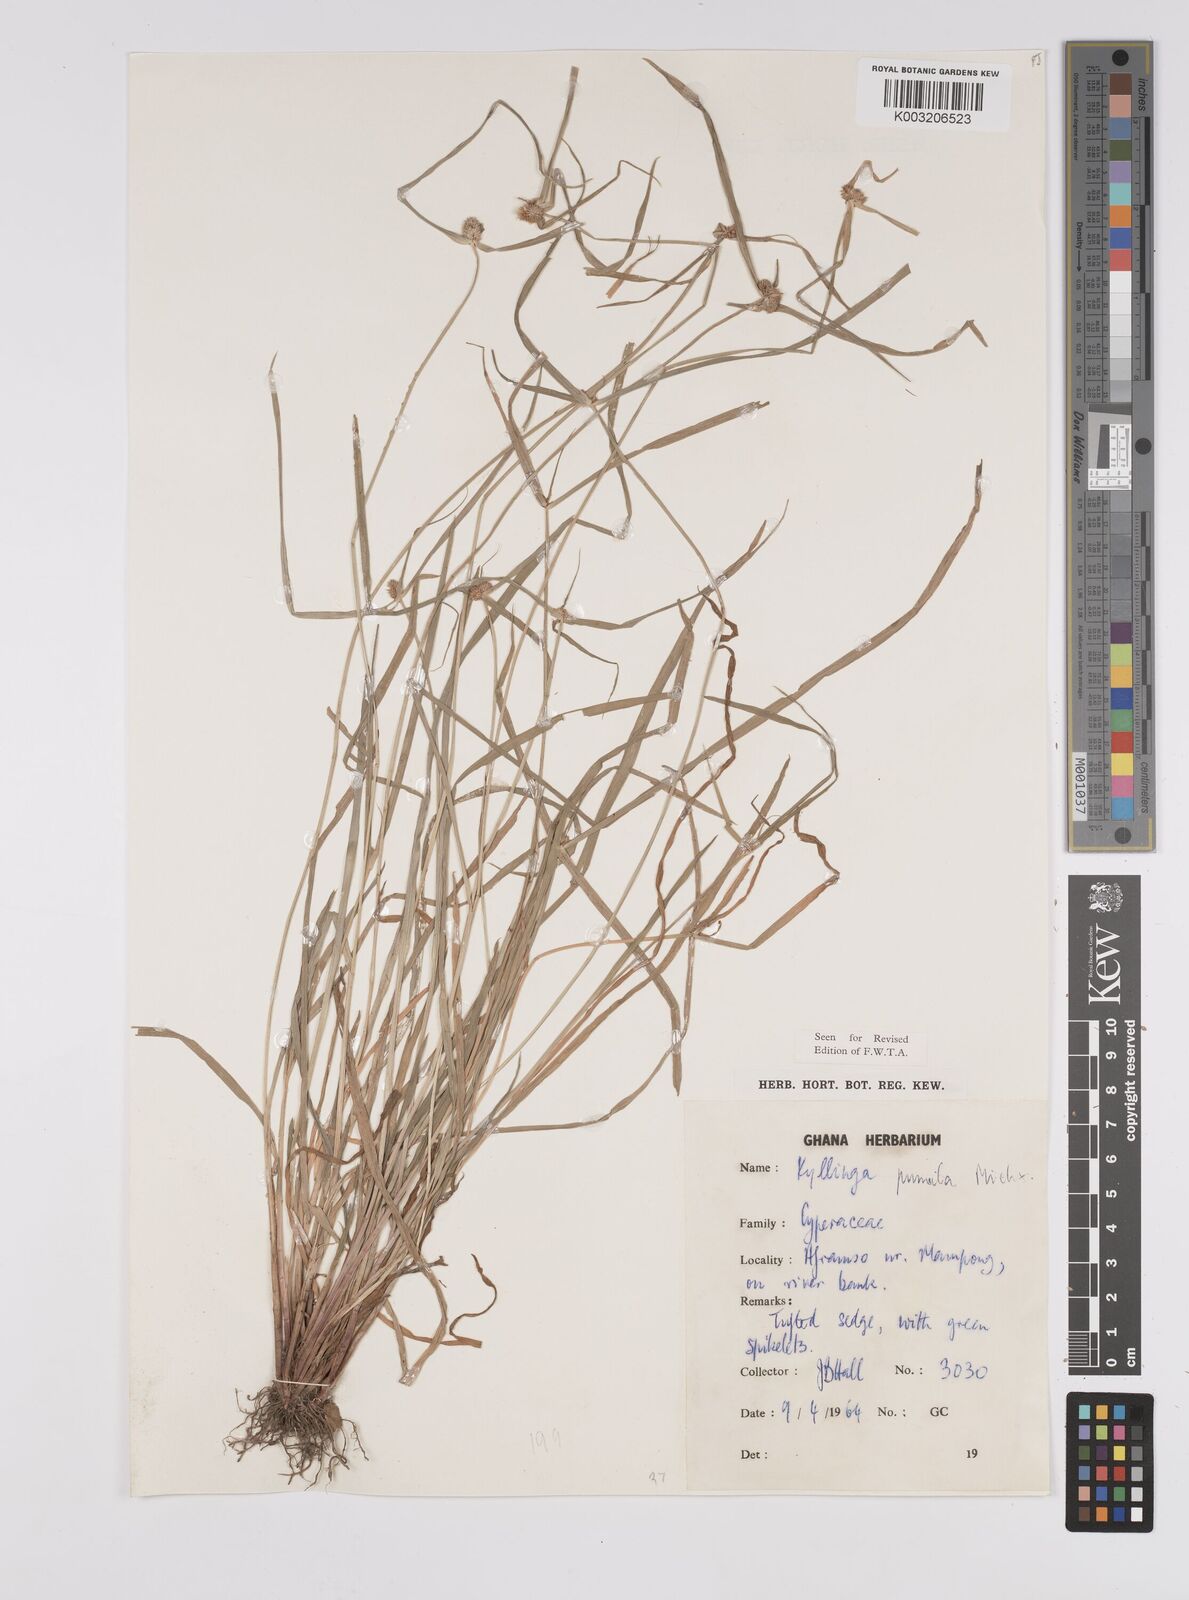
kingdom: Plantae
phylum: Tracheophyta
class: Liliopsida
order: Poales
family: Cyperaceae
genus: Cyperus
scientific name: Cyperus
